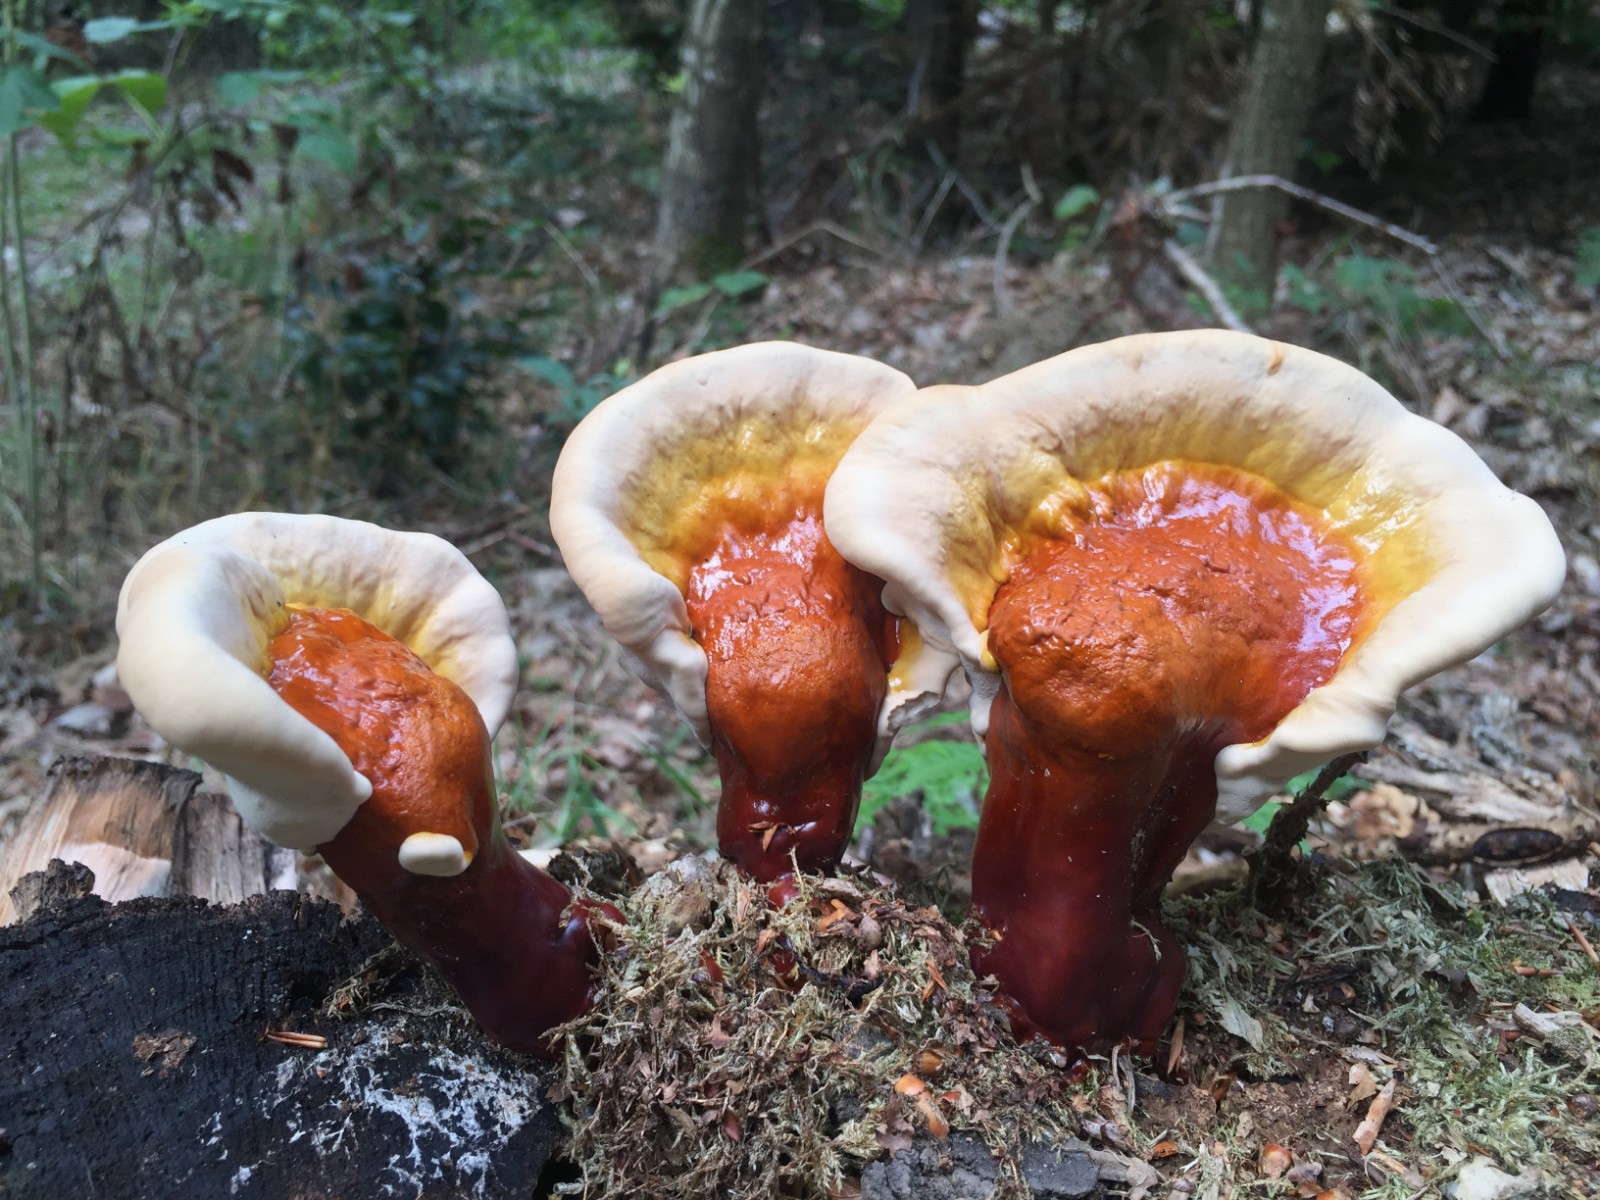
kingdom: Fungi
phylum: Basidiomycota
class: Agaricomycetes
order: Polyporales
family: Polyporaceae
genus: Ganoderma
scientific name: Ganoderma lucidum
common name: skinnende lakporesvamp
